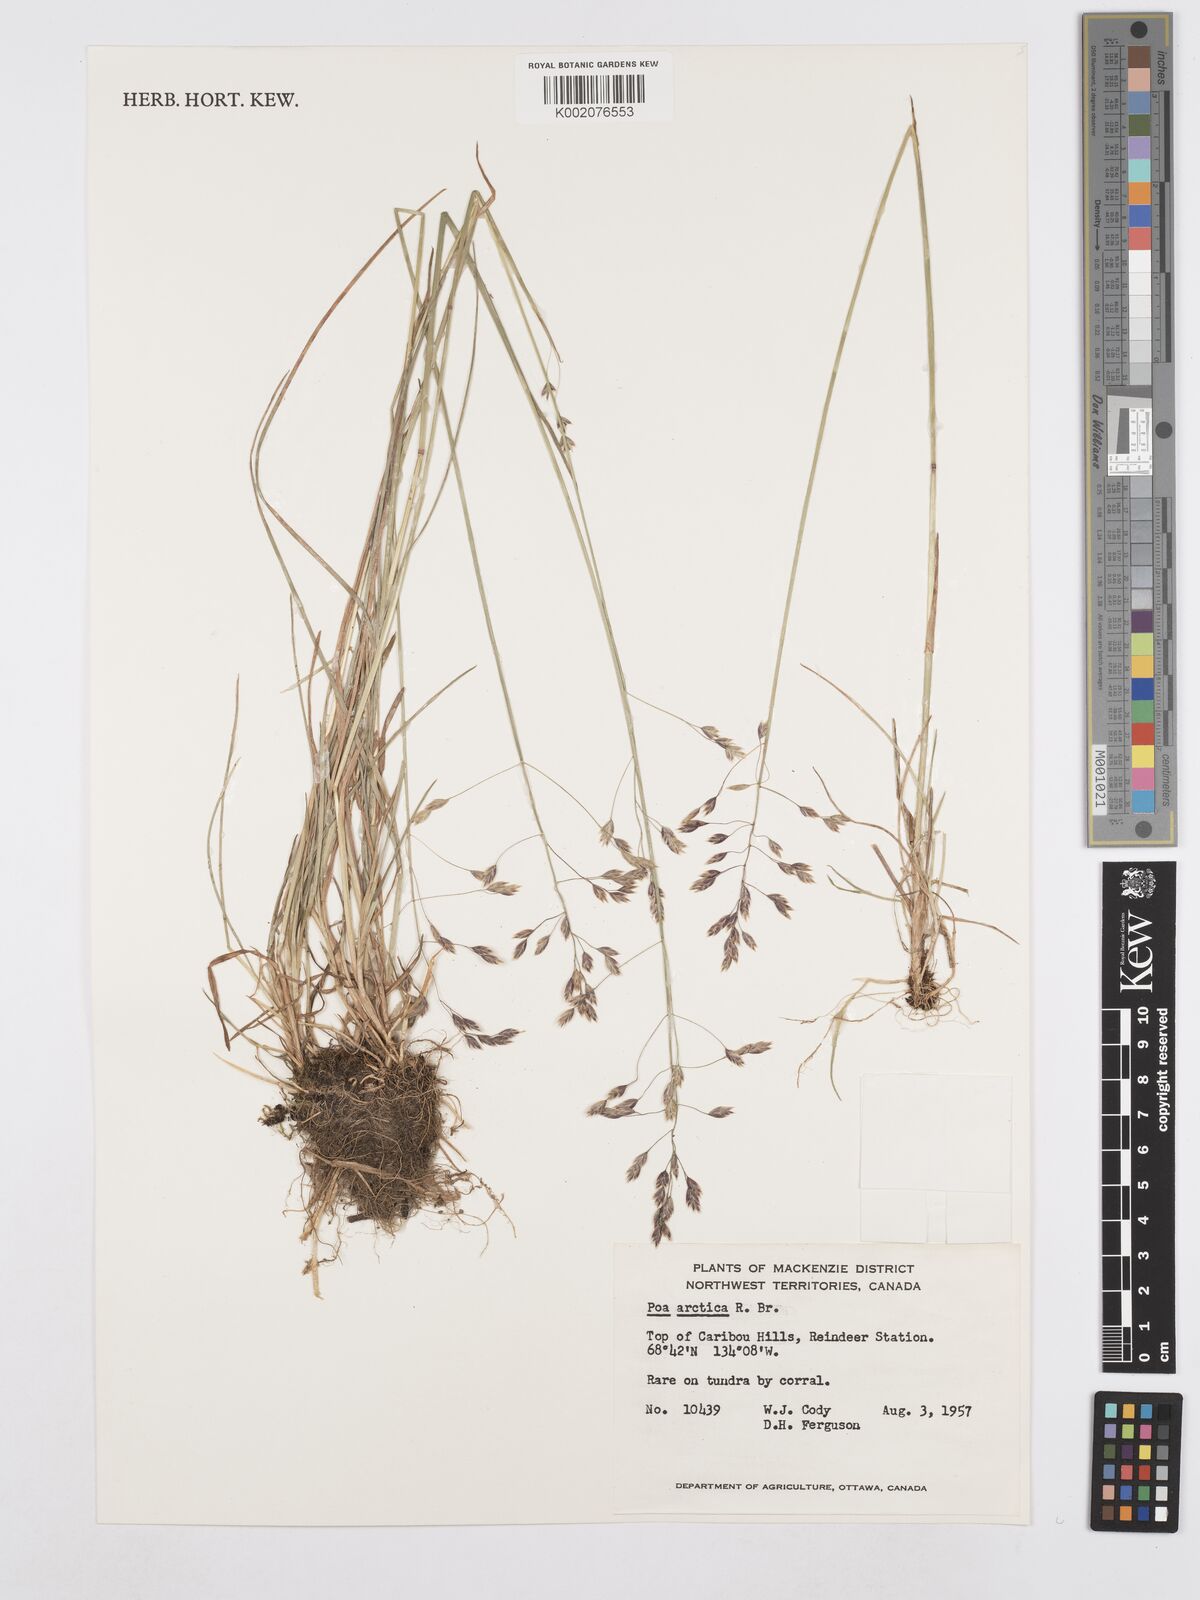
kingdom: Plantae
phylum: Tracheophyta
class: Liliopsida
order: Poales
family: Poaceae
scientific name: Poaceae
